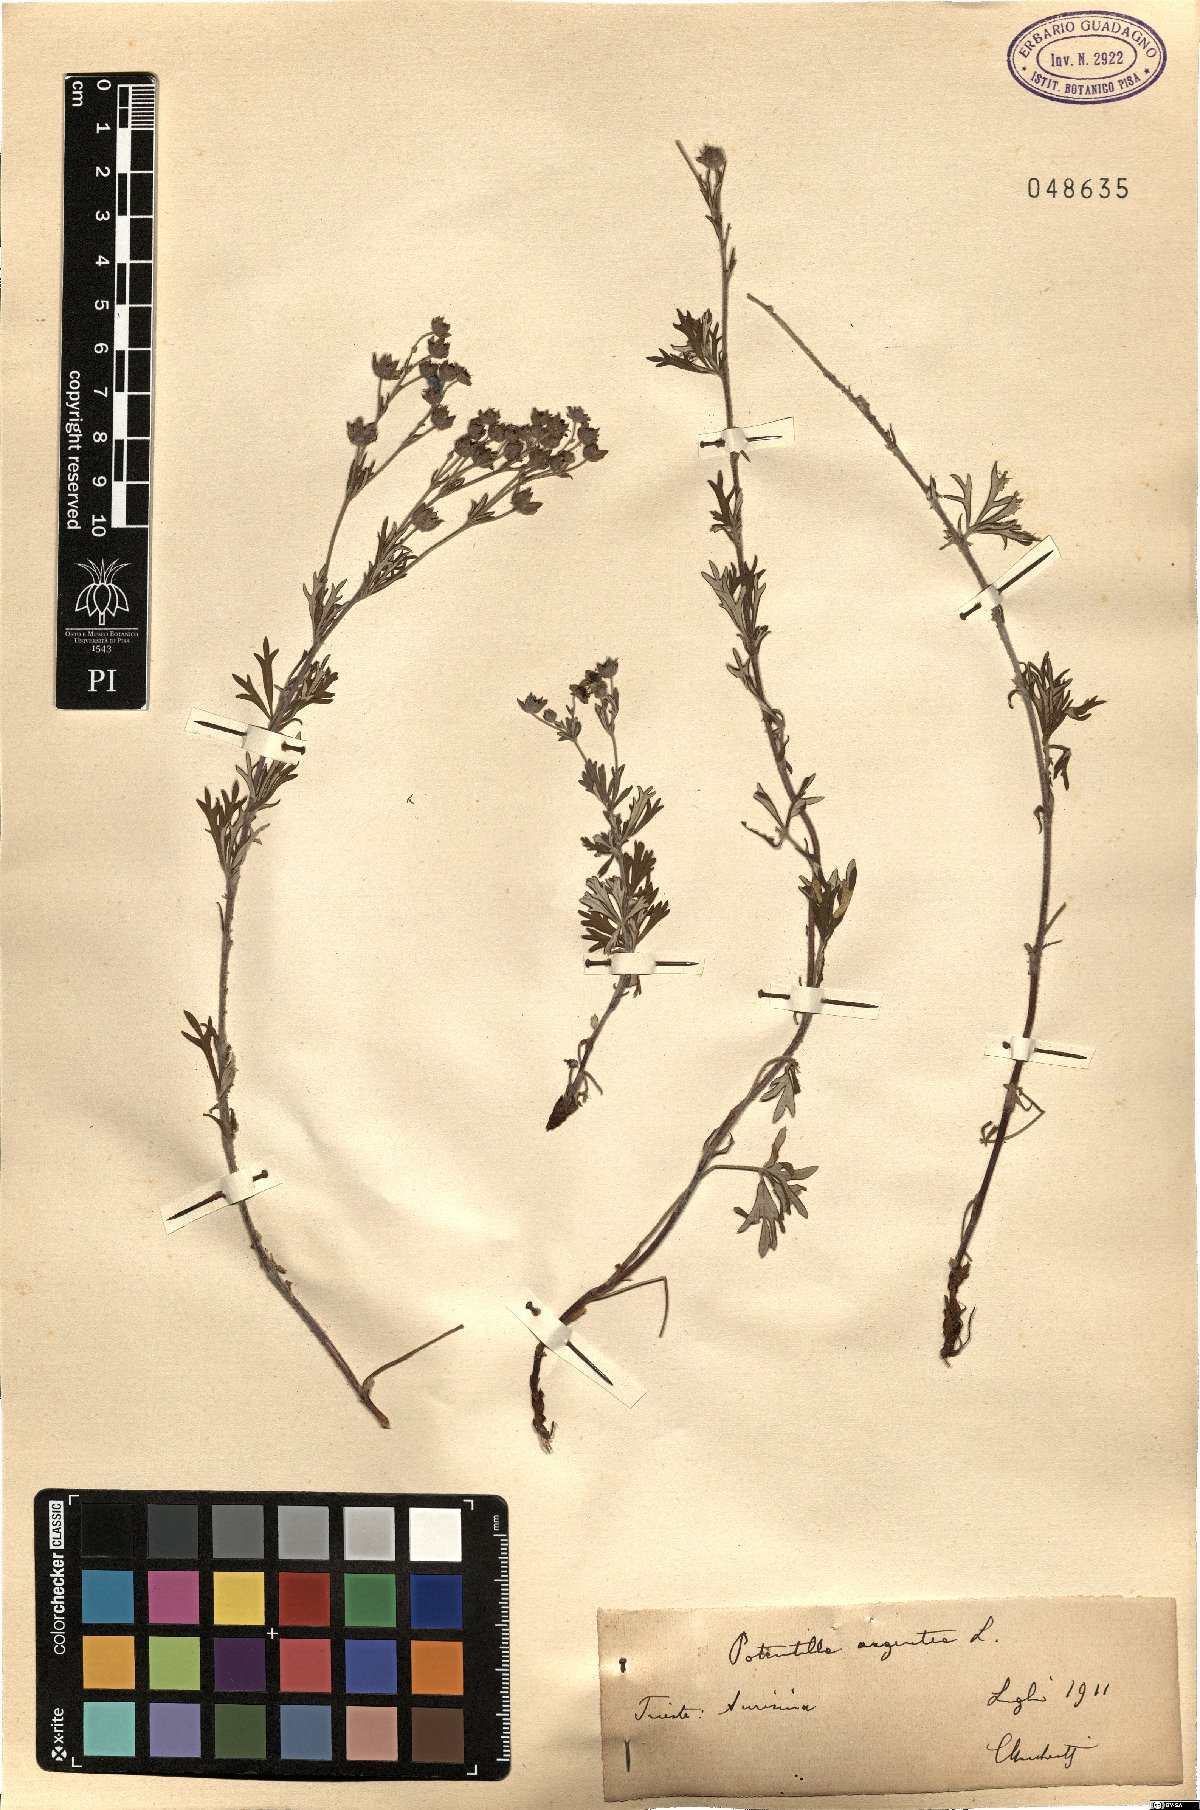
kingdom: Plantae
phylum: Tracheophyta
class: Magnoliopsida
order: Rosales
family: Rosaceae
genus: Potentilla
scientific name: Potentilla argentea
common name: Hoary cinquefoil
